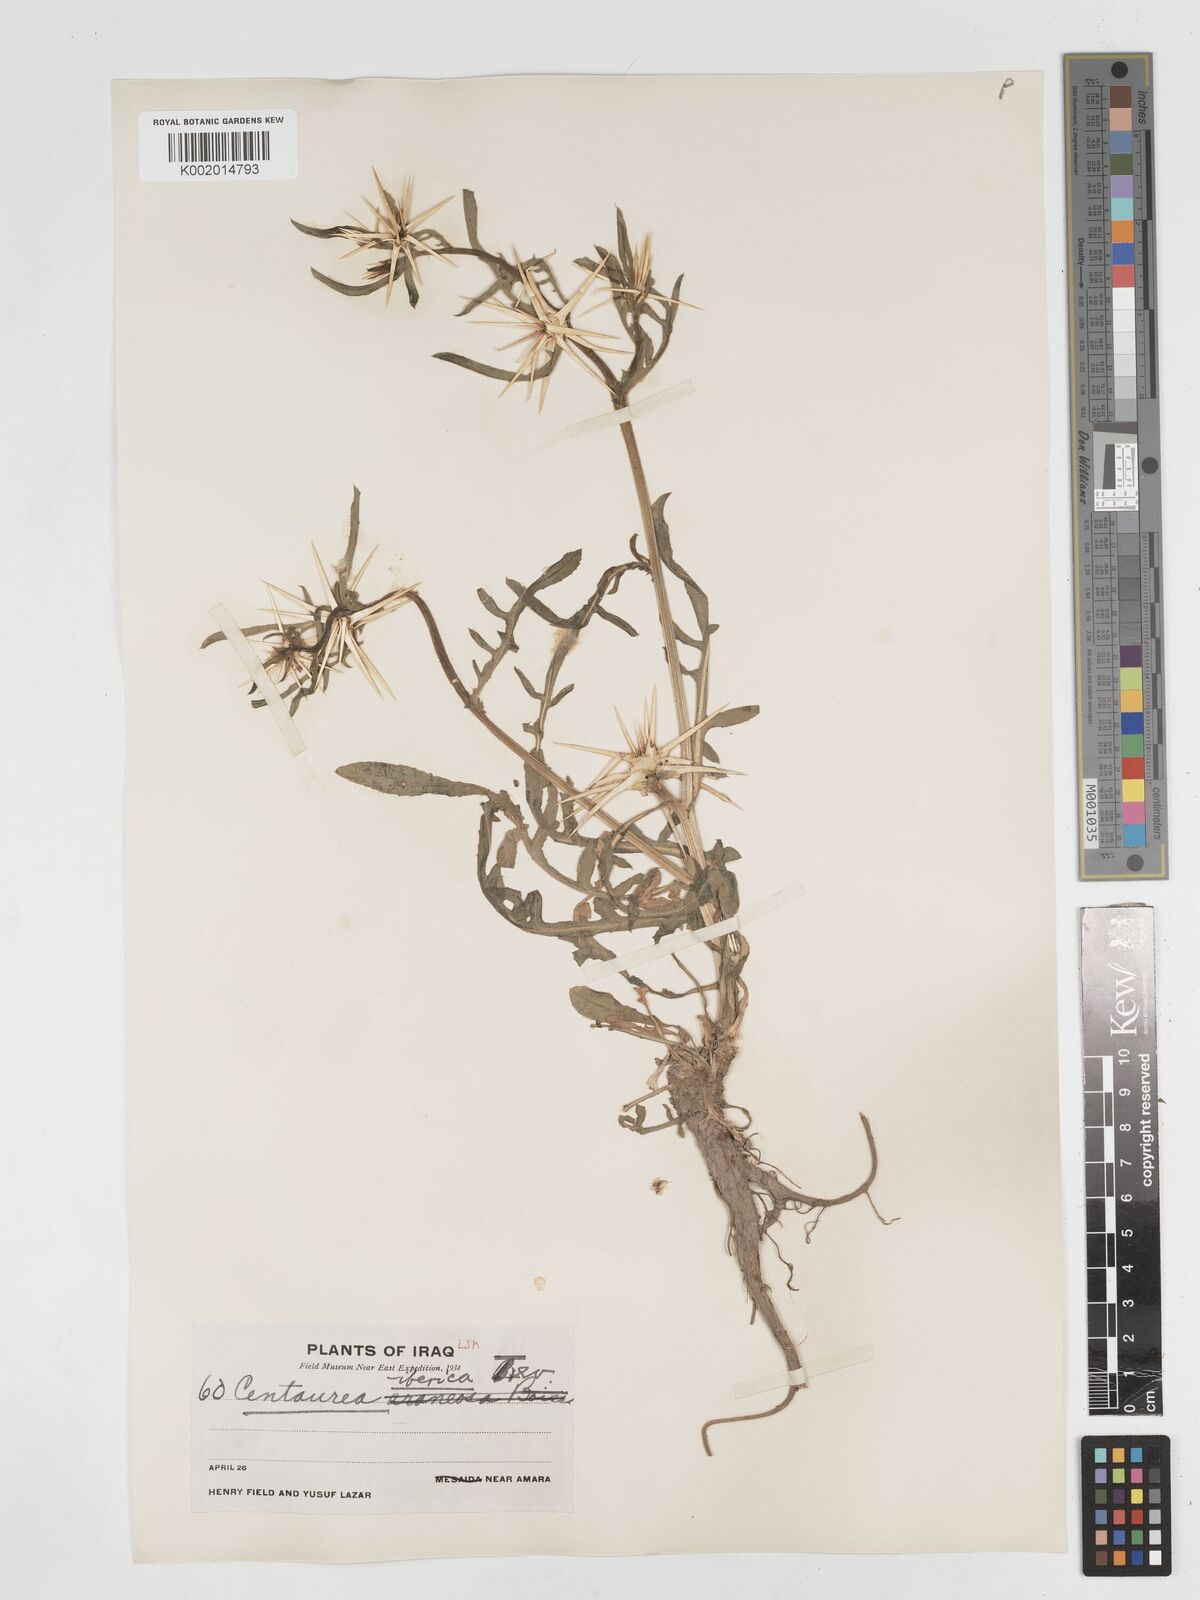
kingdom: Plantae
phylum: Tracheophyta
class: Magnoliopsida
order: Asterales
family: Asteraceae
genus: Centaurea
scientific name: Centaurea iberica
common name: Iberian knapweed
